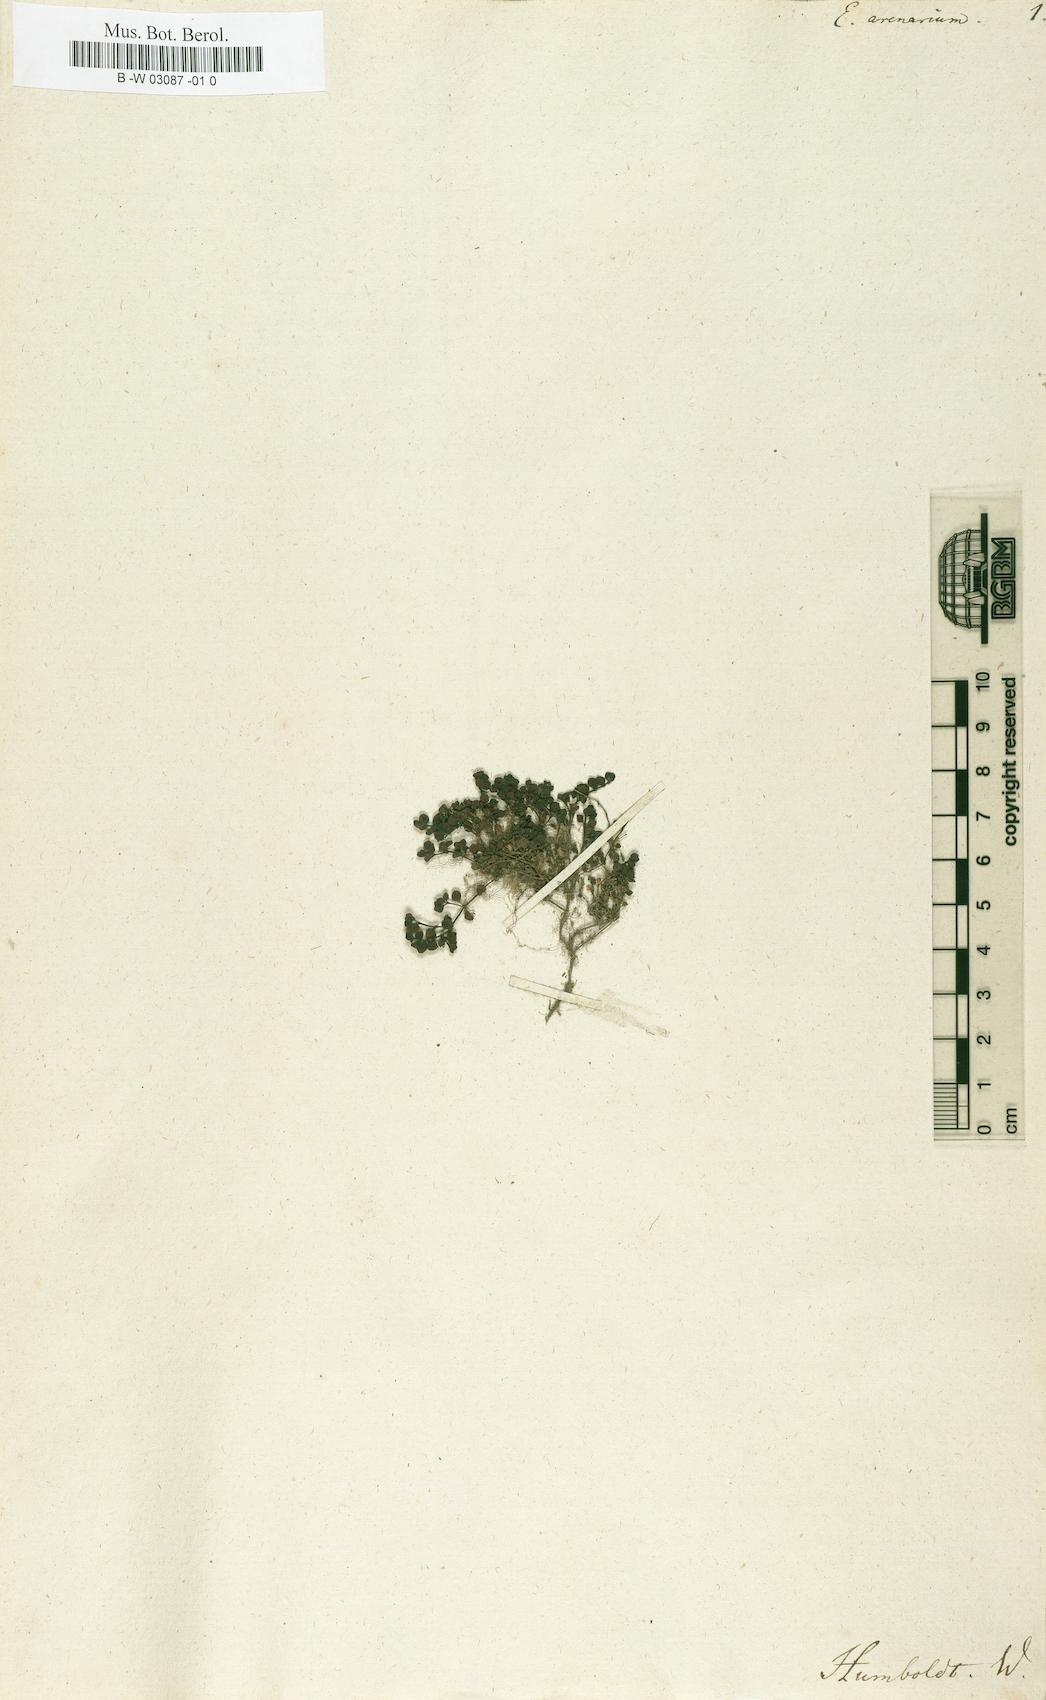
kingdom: Plantae
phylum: Tracheophyta
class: Magnoliopsida
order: Myrtales
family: Onagraceae
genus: Ludwigia
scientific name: Ludwigia Epactium arenarium
